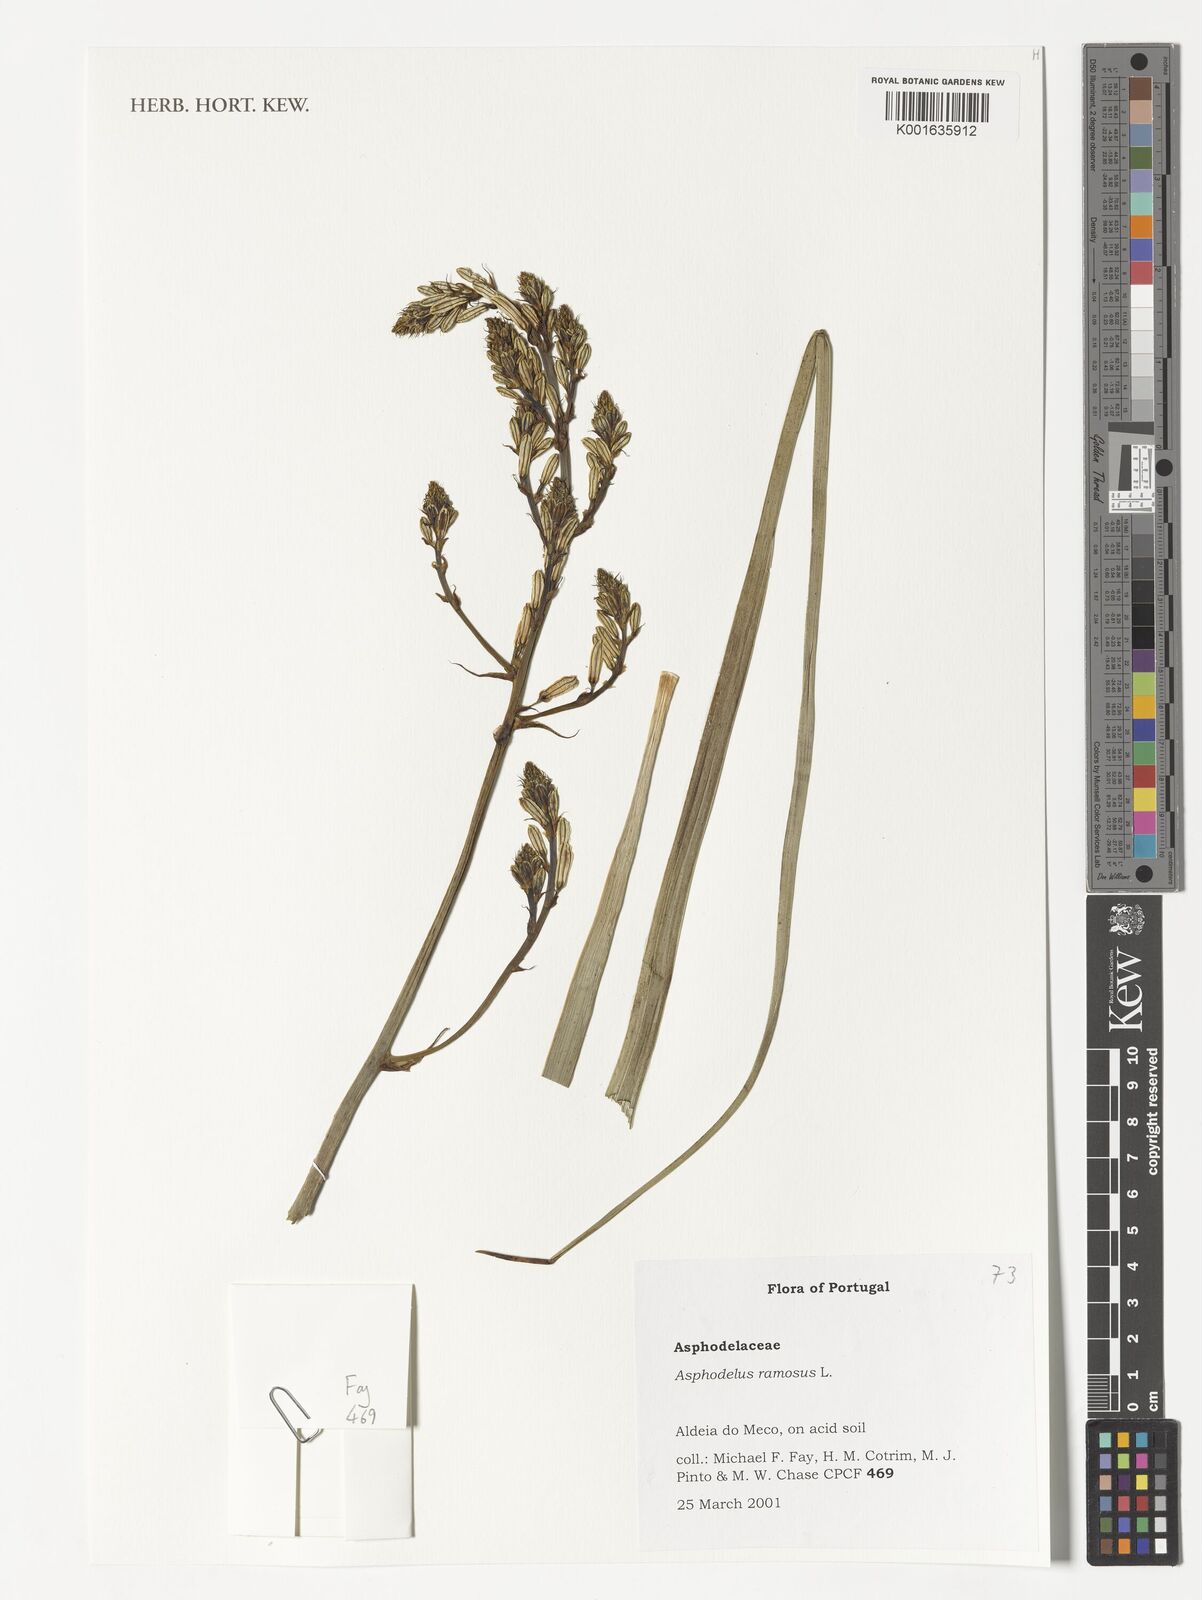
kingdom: Plantae
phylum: Tracheophyta
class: Liliopsida
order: Asparagales
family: Asphodelaceae
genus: Asphodelus
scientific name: Asphodelus ramosus
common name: Silverrod
